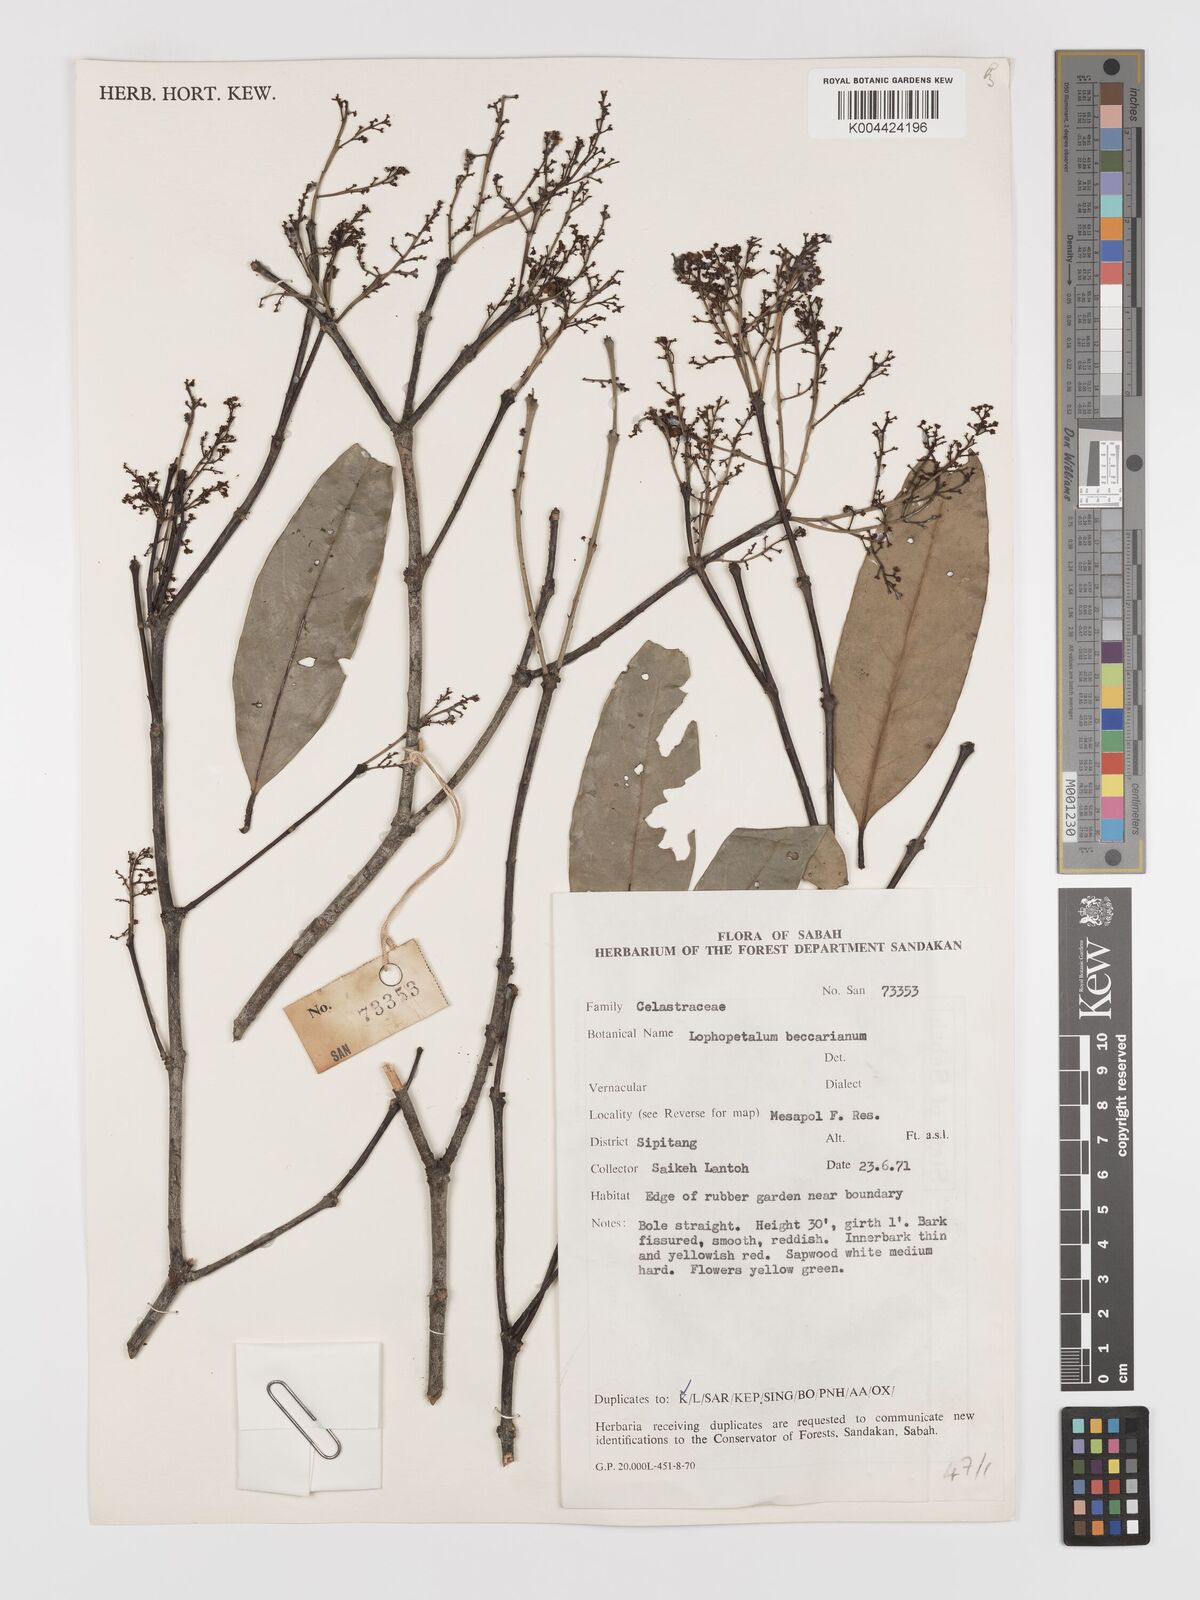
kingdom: Plantae
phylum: Tracheophyta
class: Magnoliopsida
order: Celastrales
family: Celastraceae
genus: Lophopetalum
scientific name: Lophopetalum beccarianum
